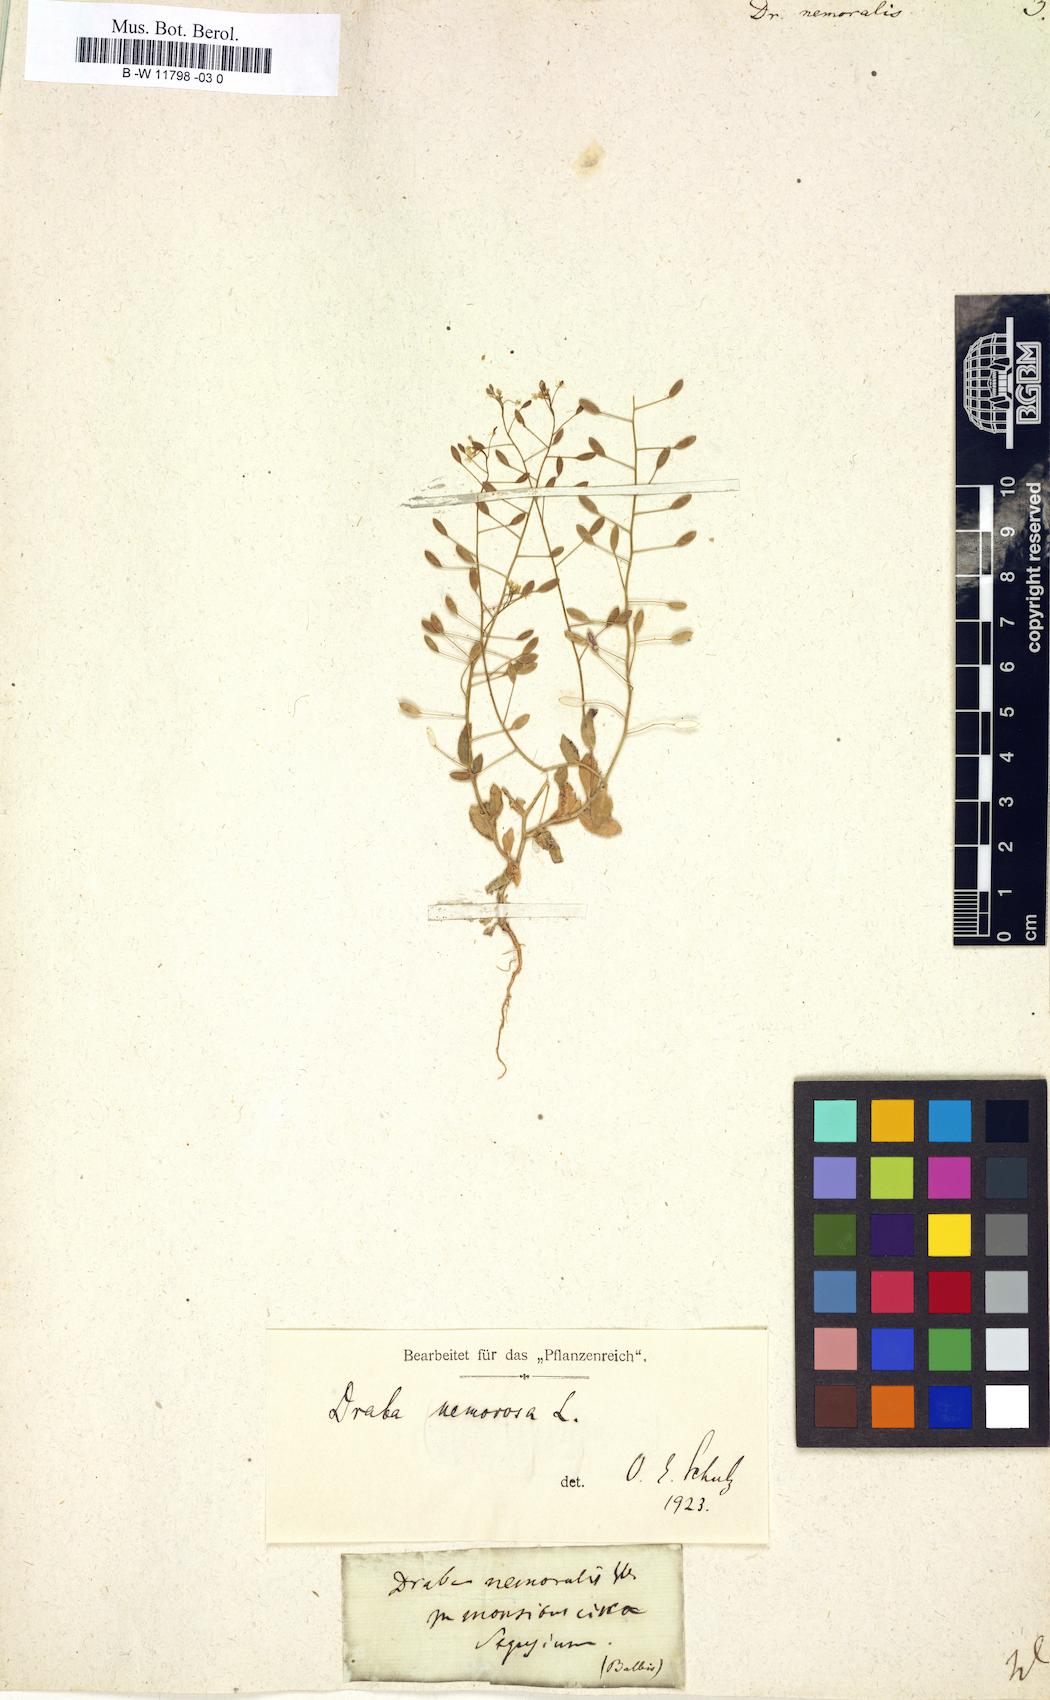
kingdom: Plantae
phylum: Tracheophyta
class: Magnoliopsida
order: Brassicales
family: Brassicaceae
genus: Draba
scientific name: Draba nemoralis
